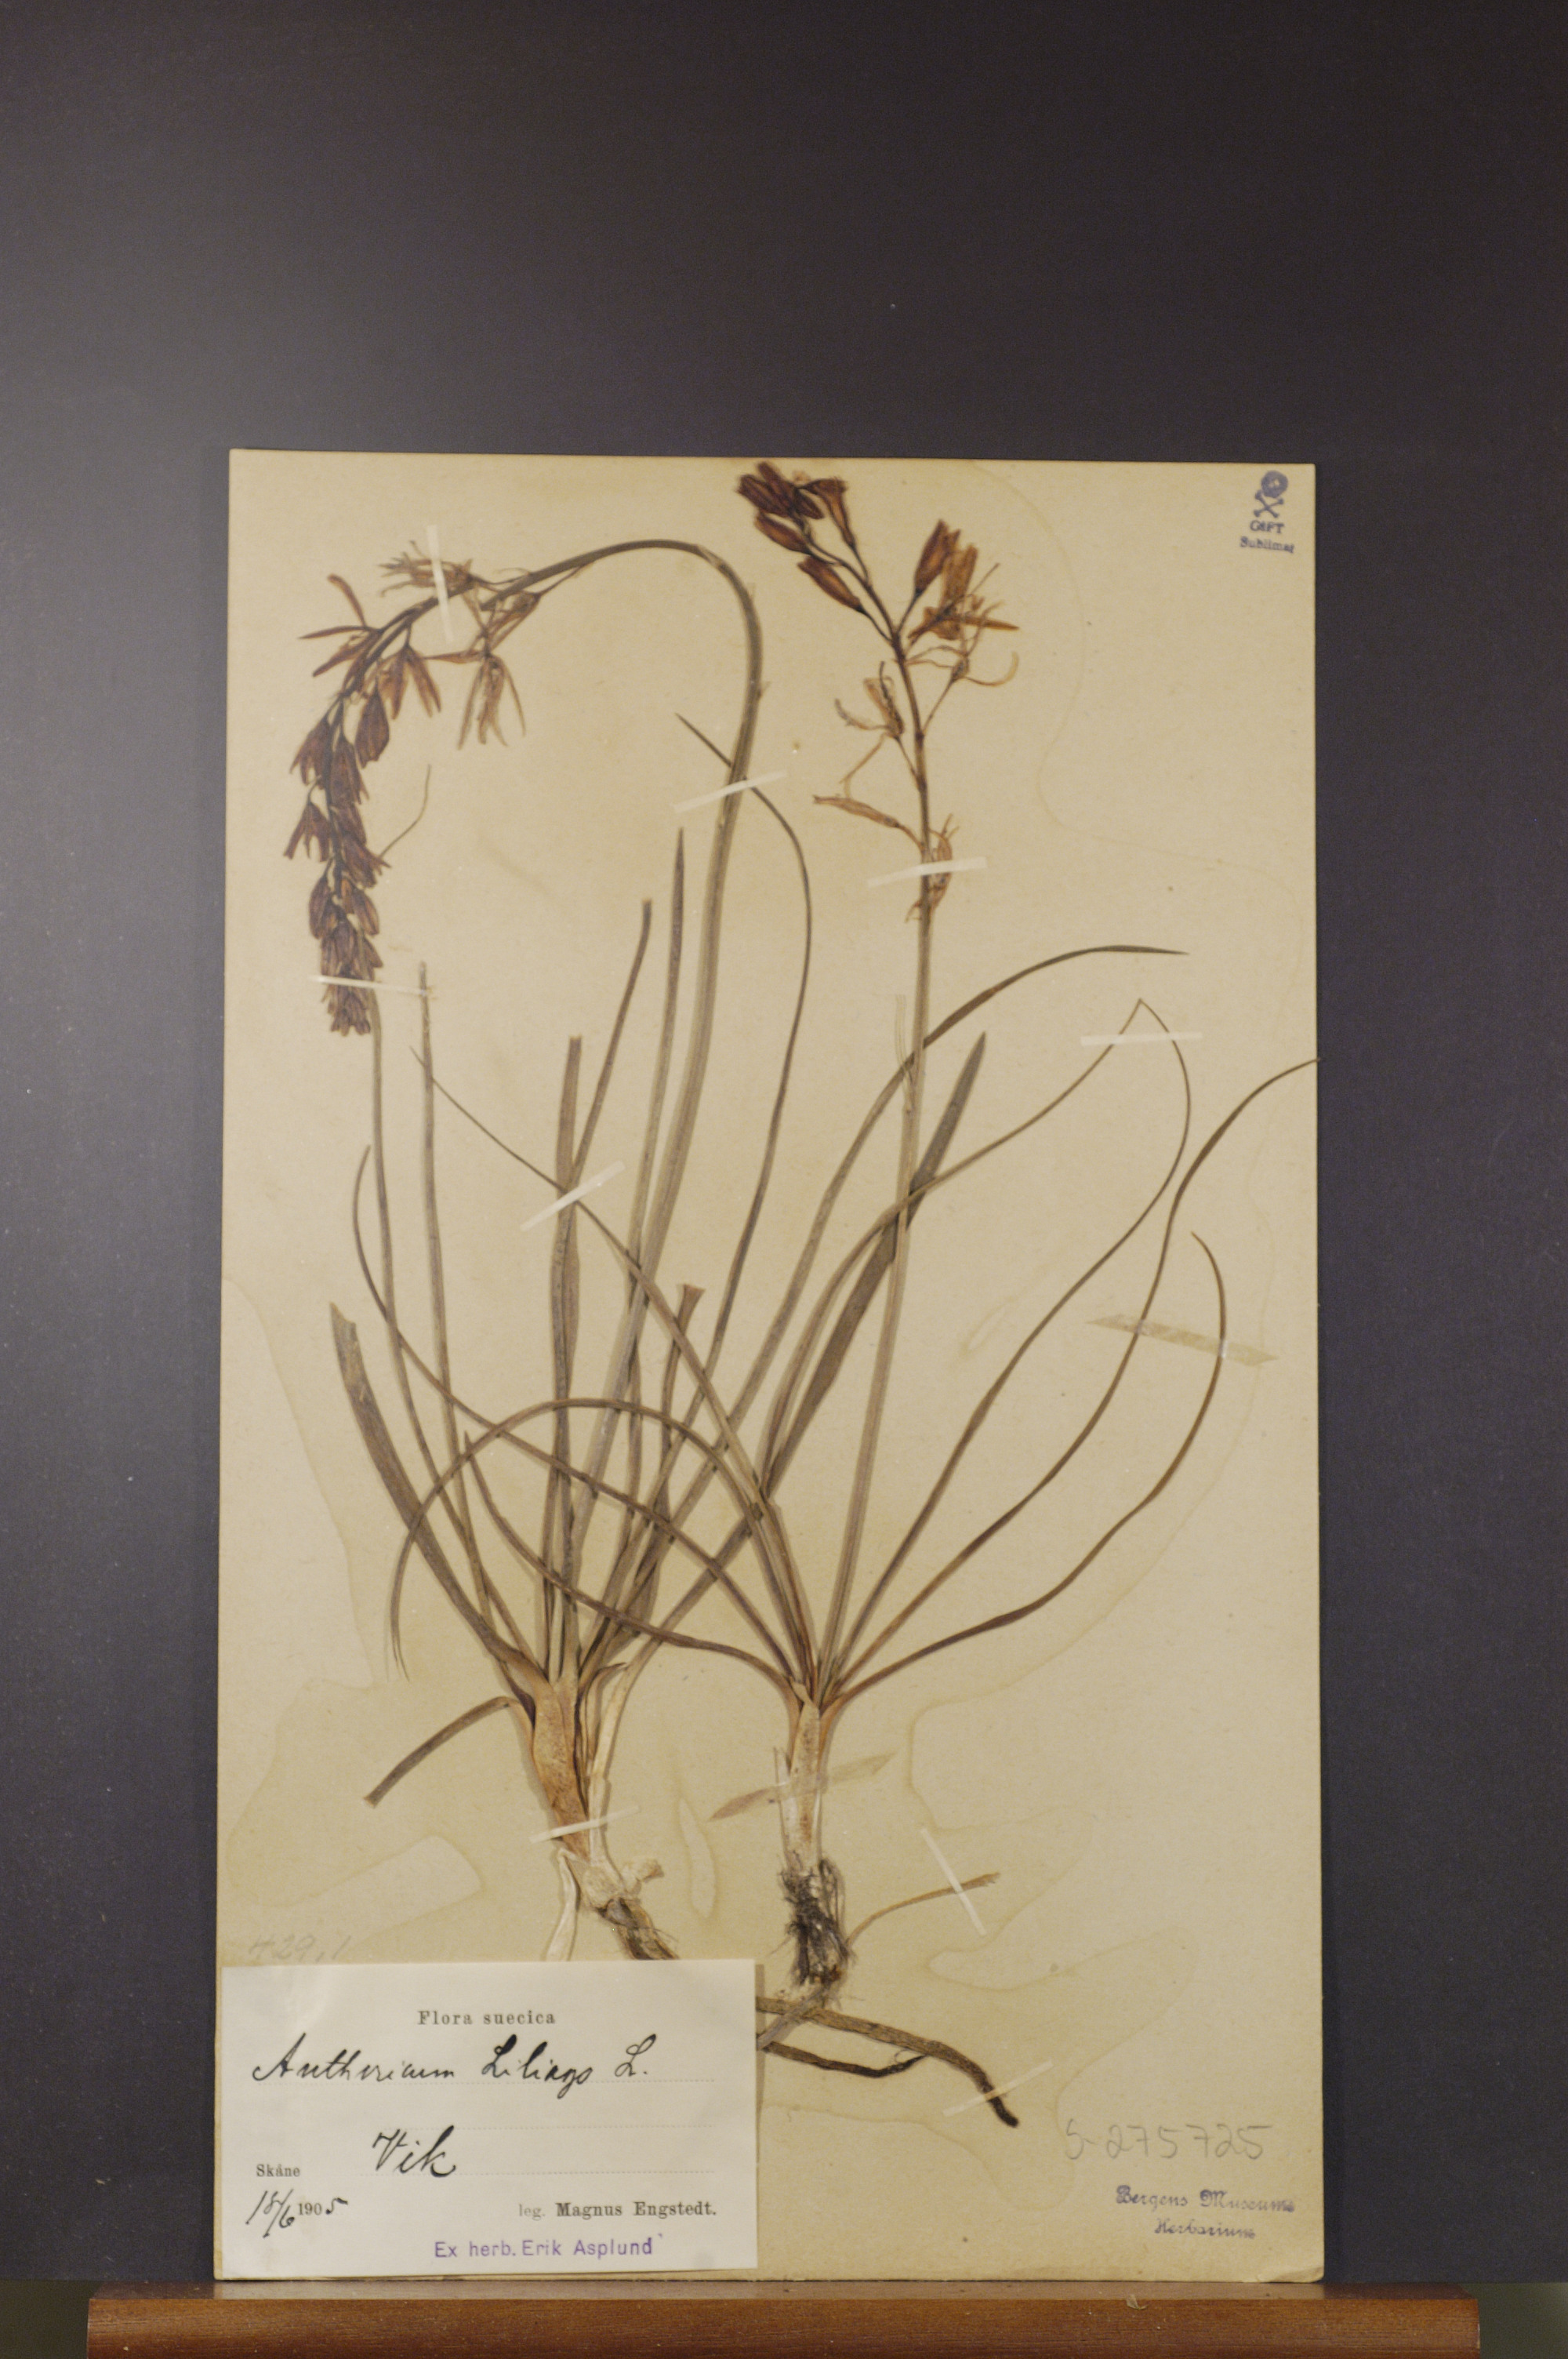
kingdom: Plantae
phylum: Tracheophyta
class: Liliopsida
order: Asparagales
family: Asparagaceae
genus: Anthericum
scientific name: Anthericum liliago
